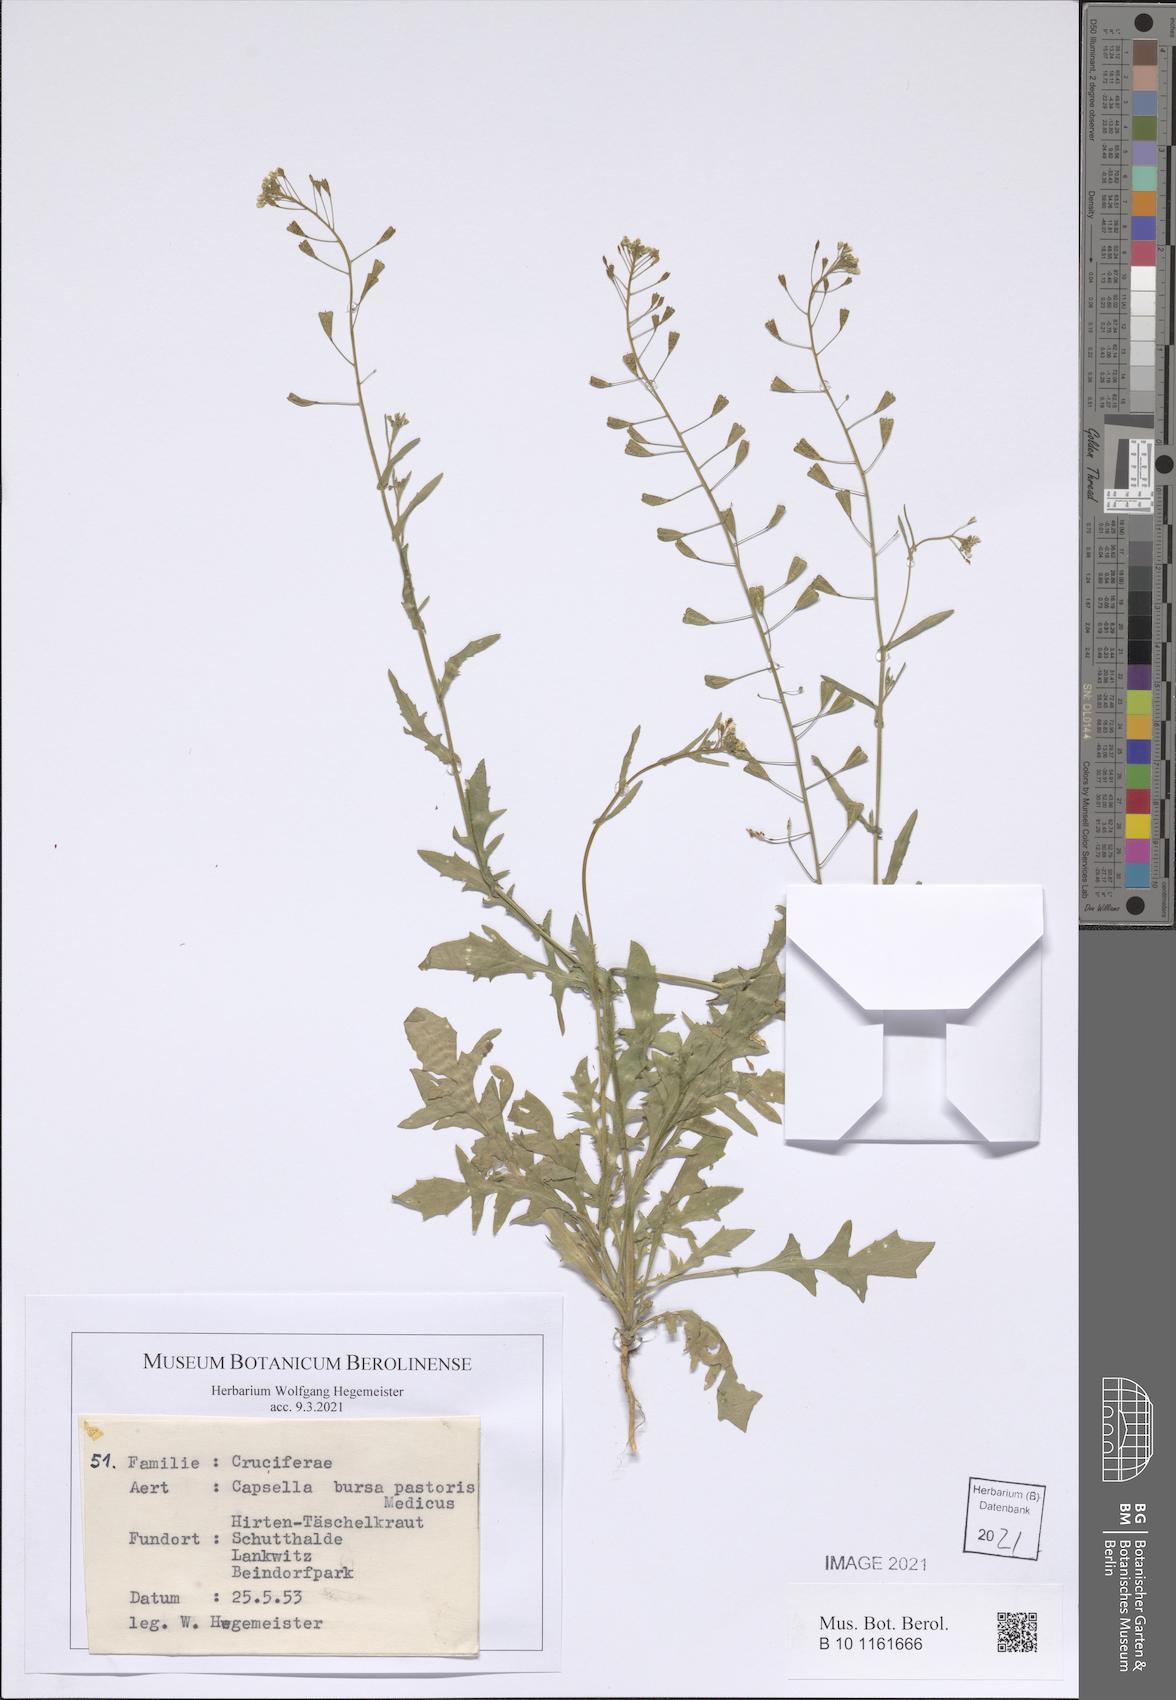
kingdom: Plantae
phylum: Tracheophyta
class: Magnoliopsida
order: Brassicales
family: Brassicaceae
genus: Capsella
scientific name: Capsella bursa-pastoris
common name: Shepherd's purse
